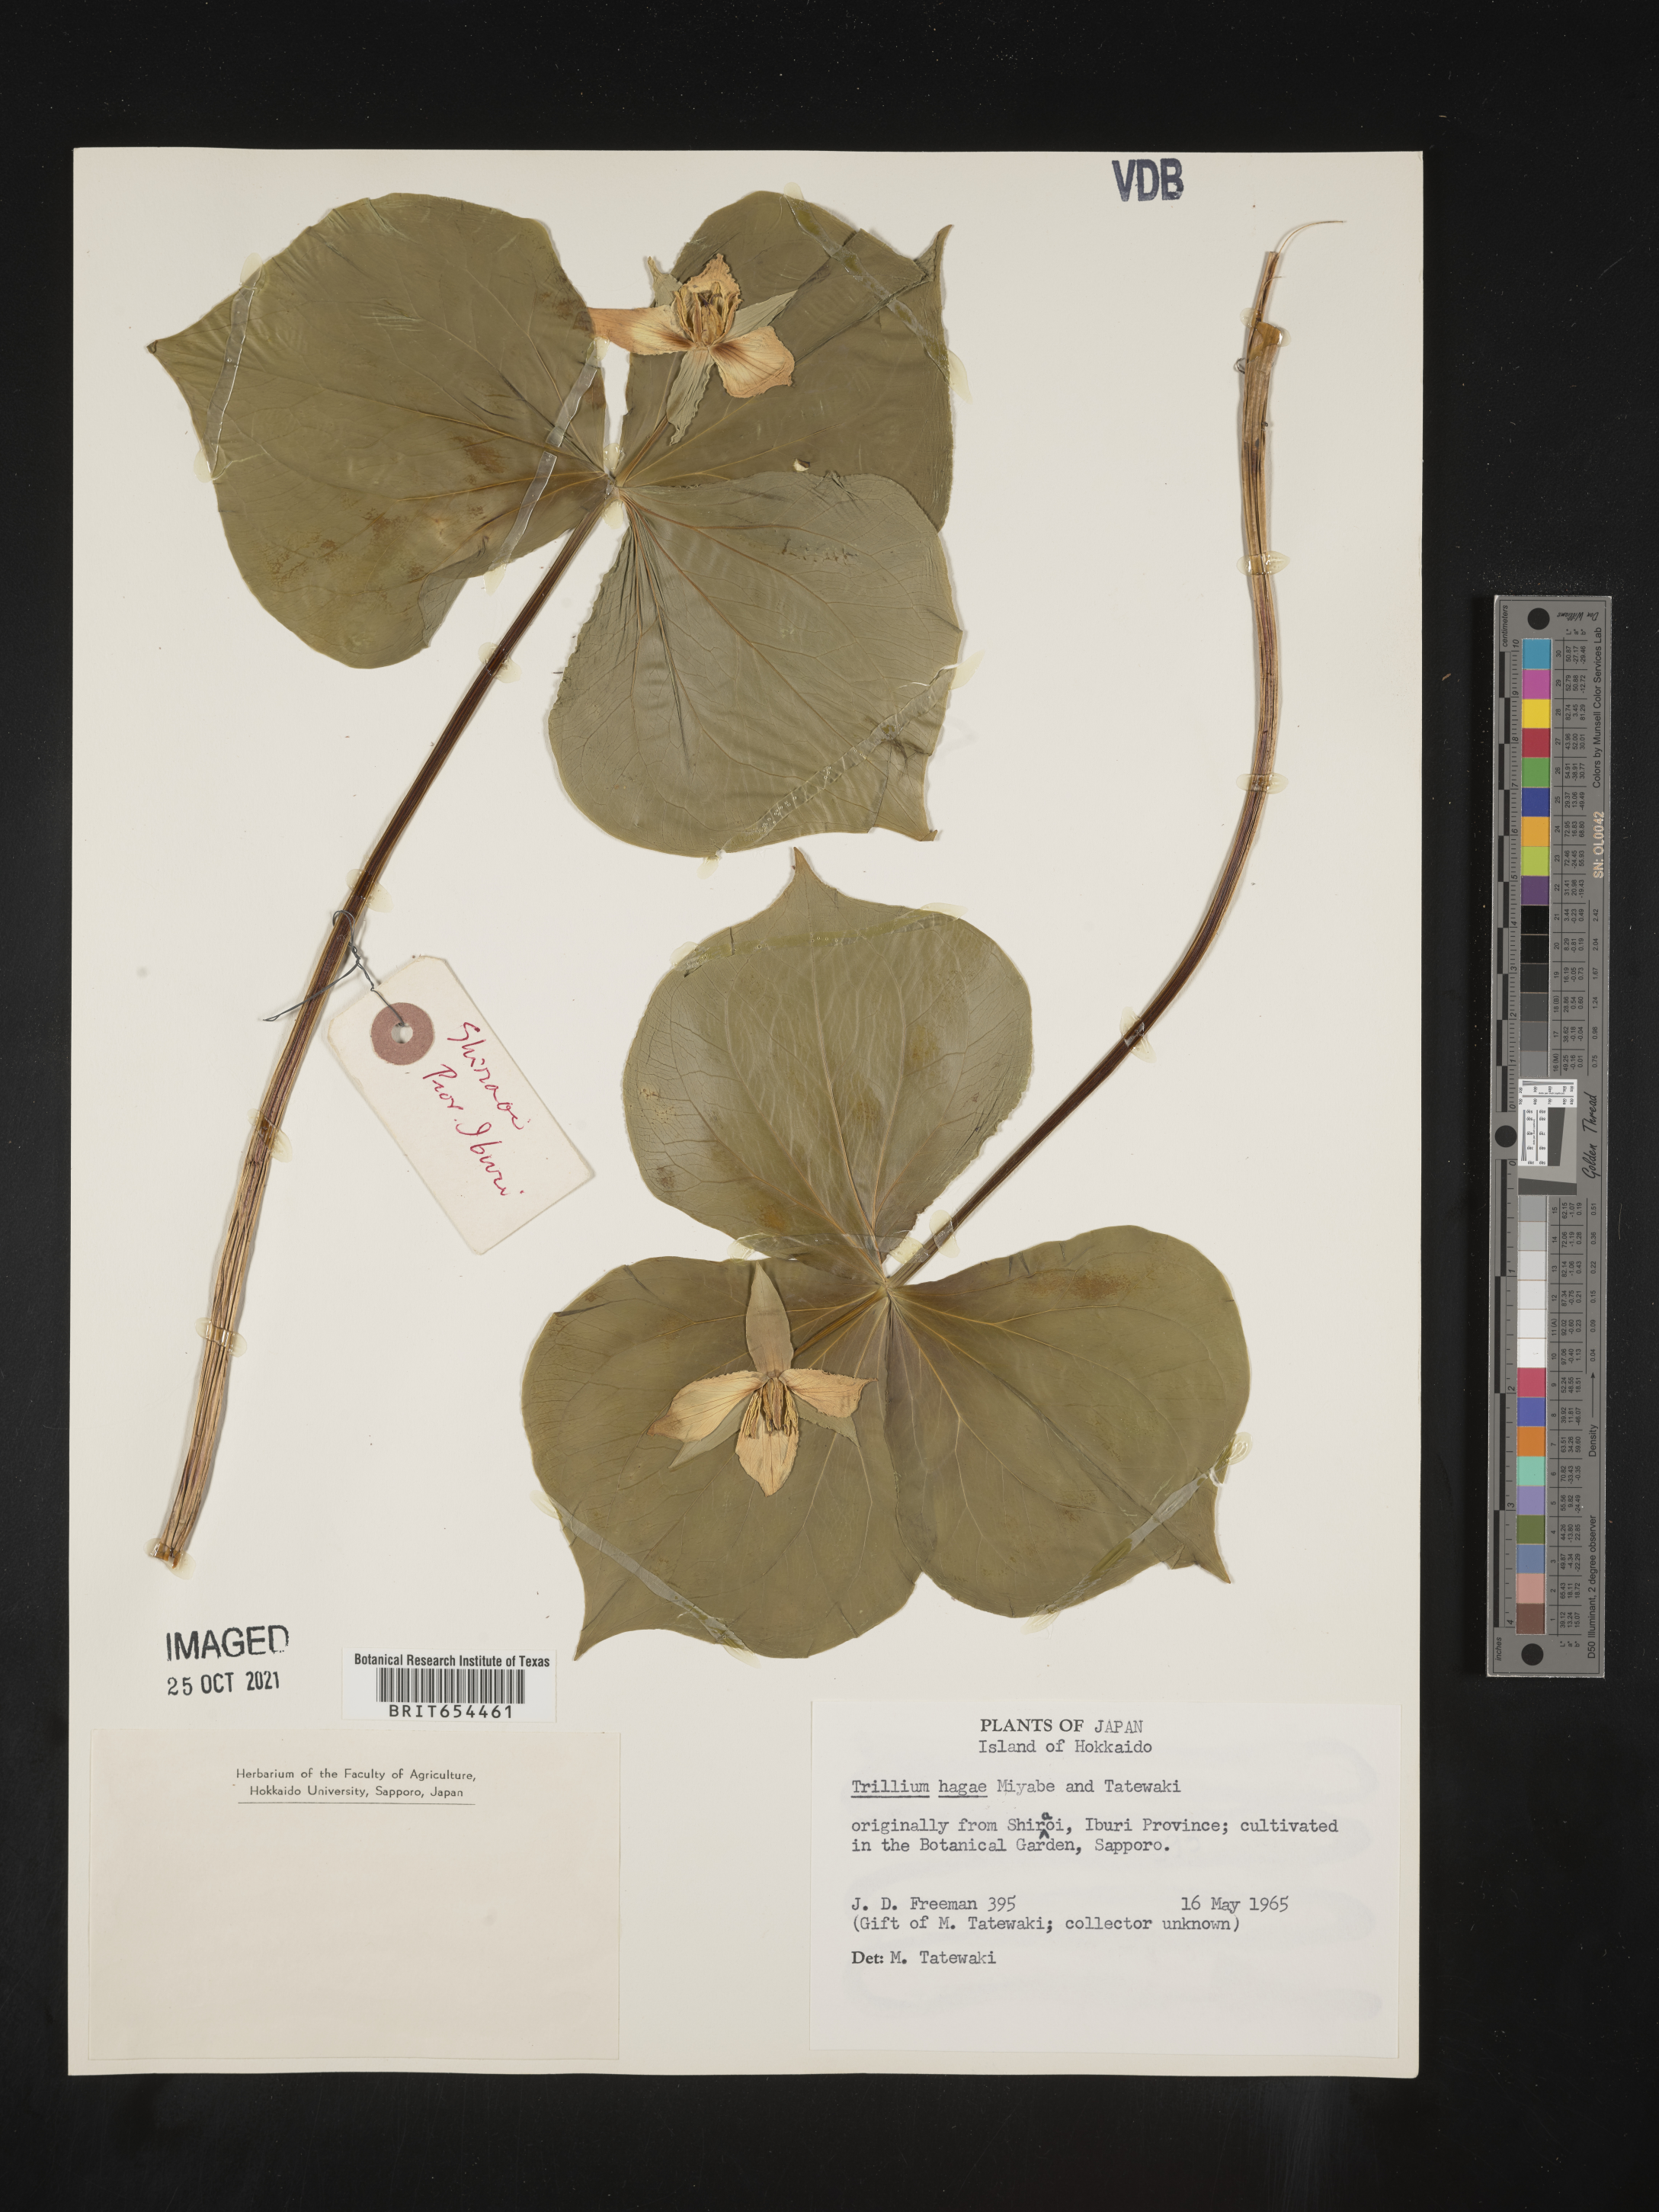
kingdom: Plantae
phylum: Tracheophyta
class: Liliopsida
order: Liliales
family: Melanthiaceae
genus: Trillium
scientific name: Trillium
